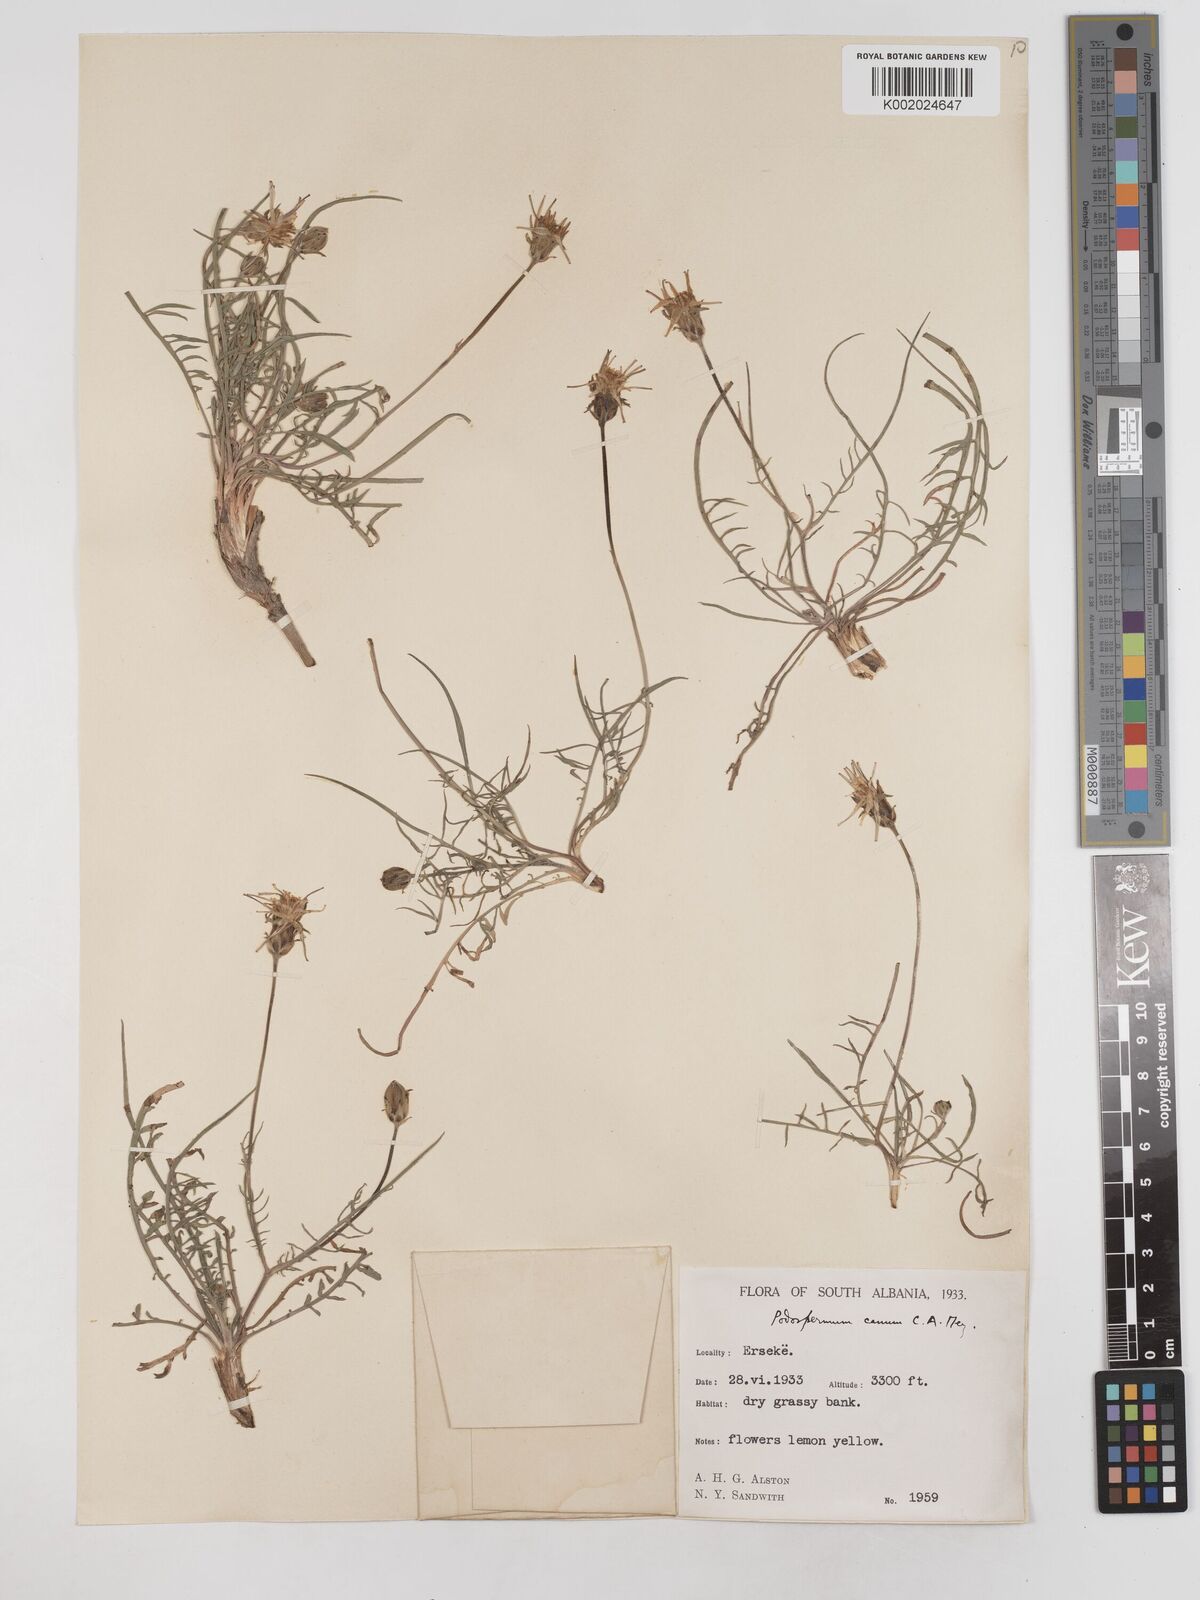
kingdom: Plantae
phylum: Tracheophyta
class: Magnoliopsida
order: Asterales
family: Asteraceae
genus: Scorzonera
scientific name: Scorzonera cana
